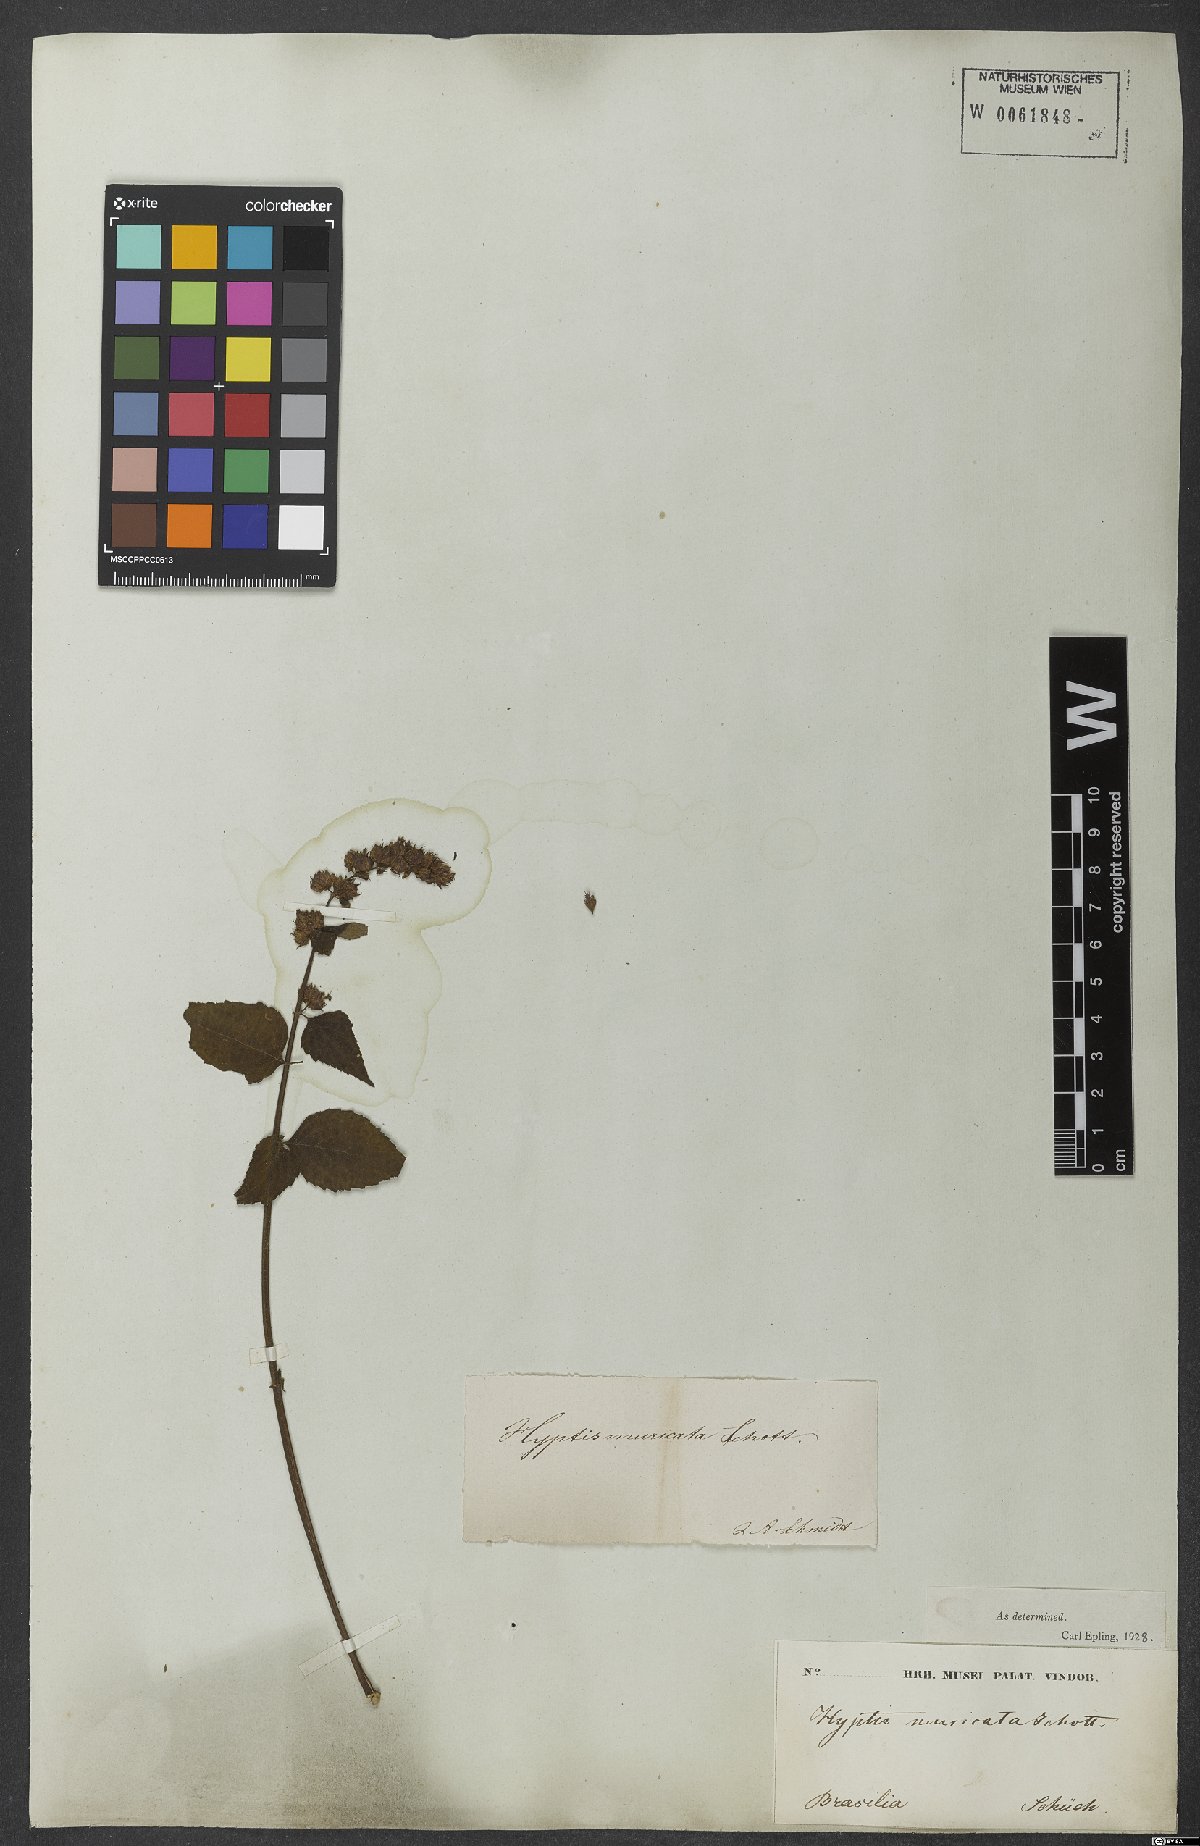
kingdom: Plantae
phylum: Tracheophyta
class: Magnoliopsida
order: Lamiales
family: Lamiaceae
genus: Cantinoa
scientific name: Cantinoa muricata
